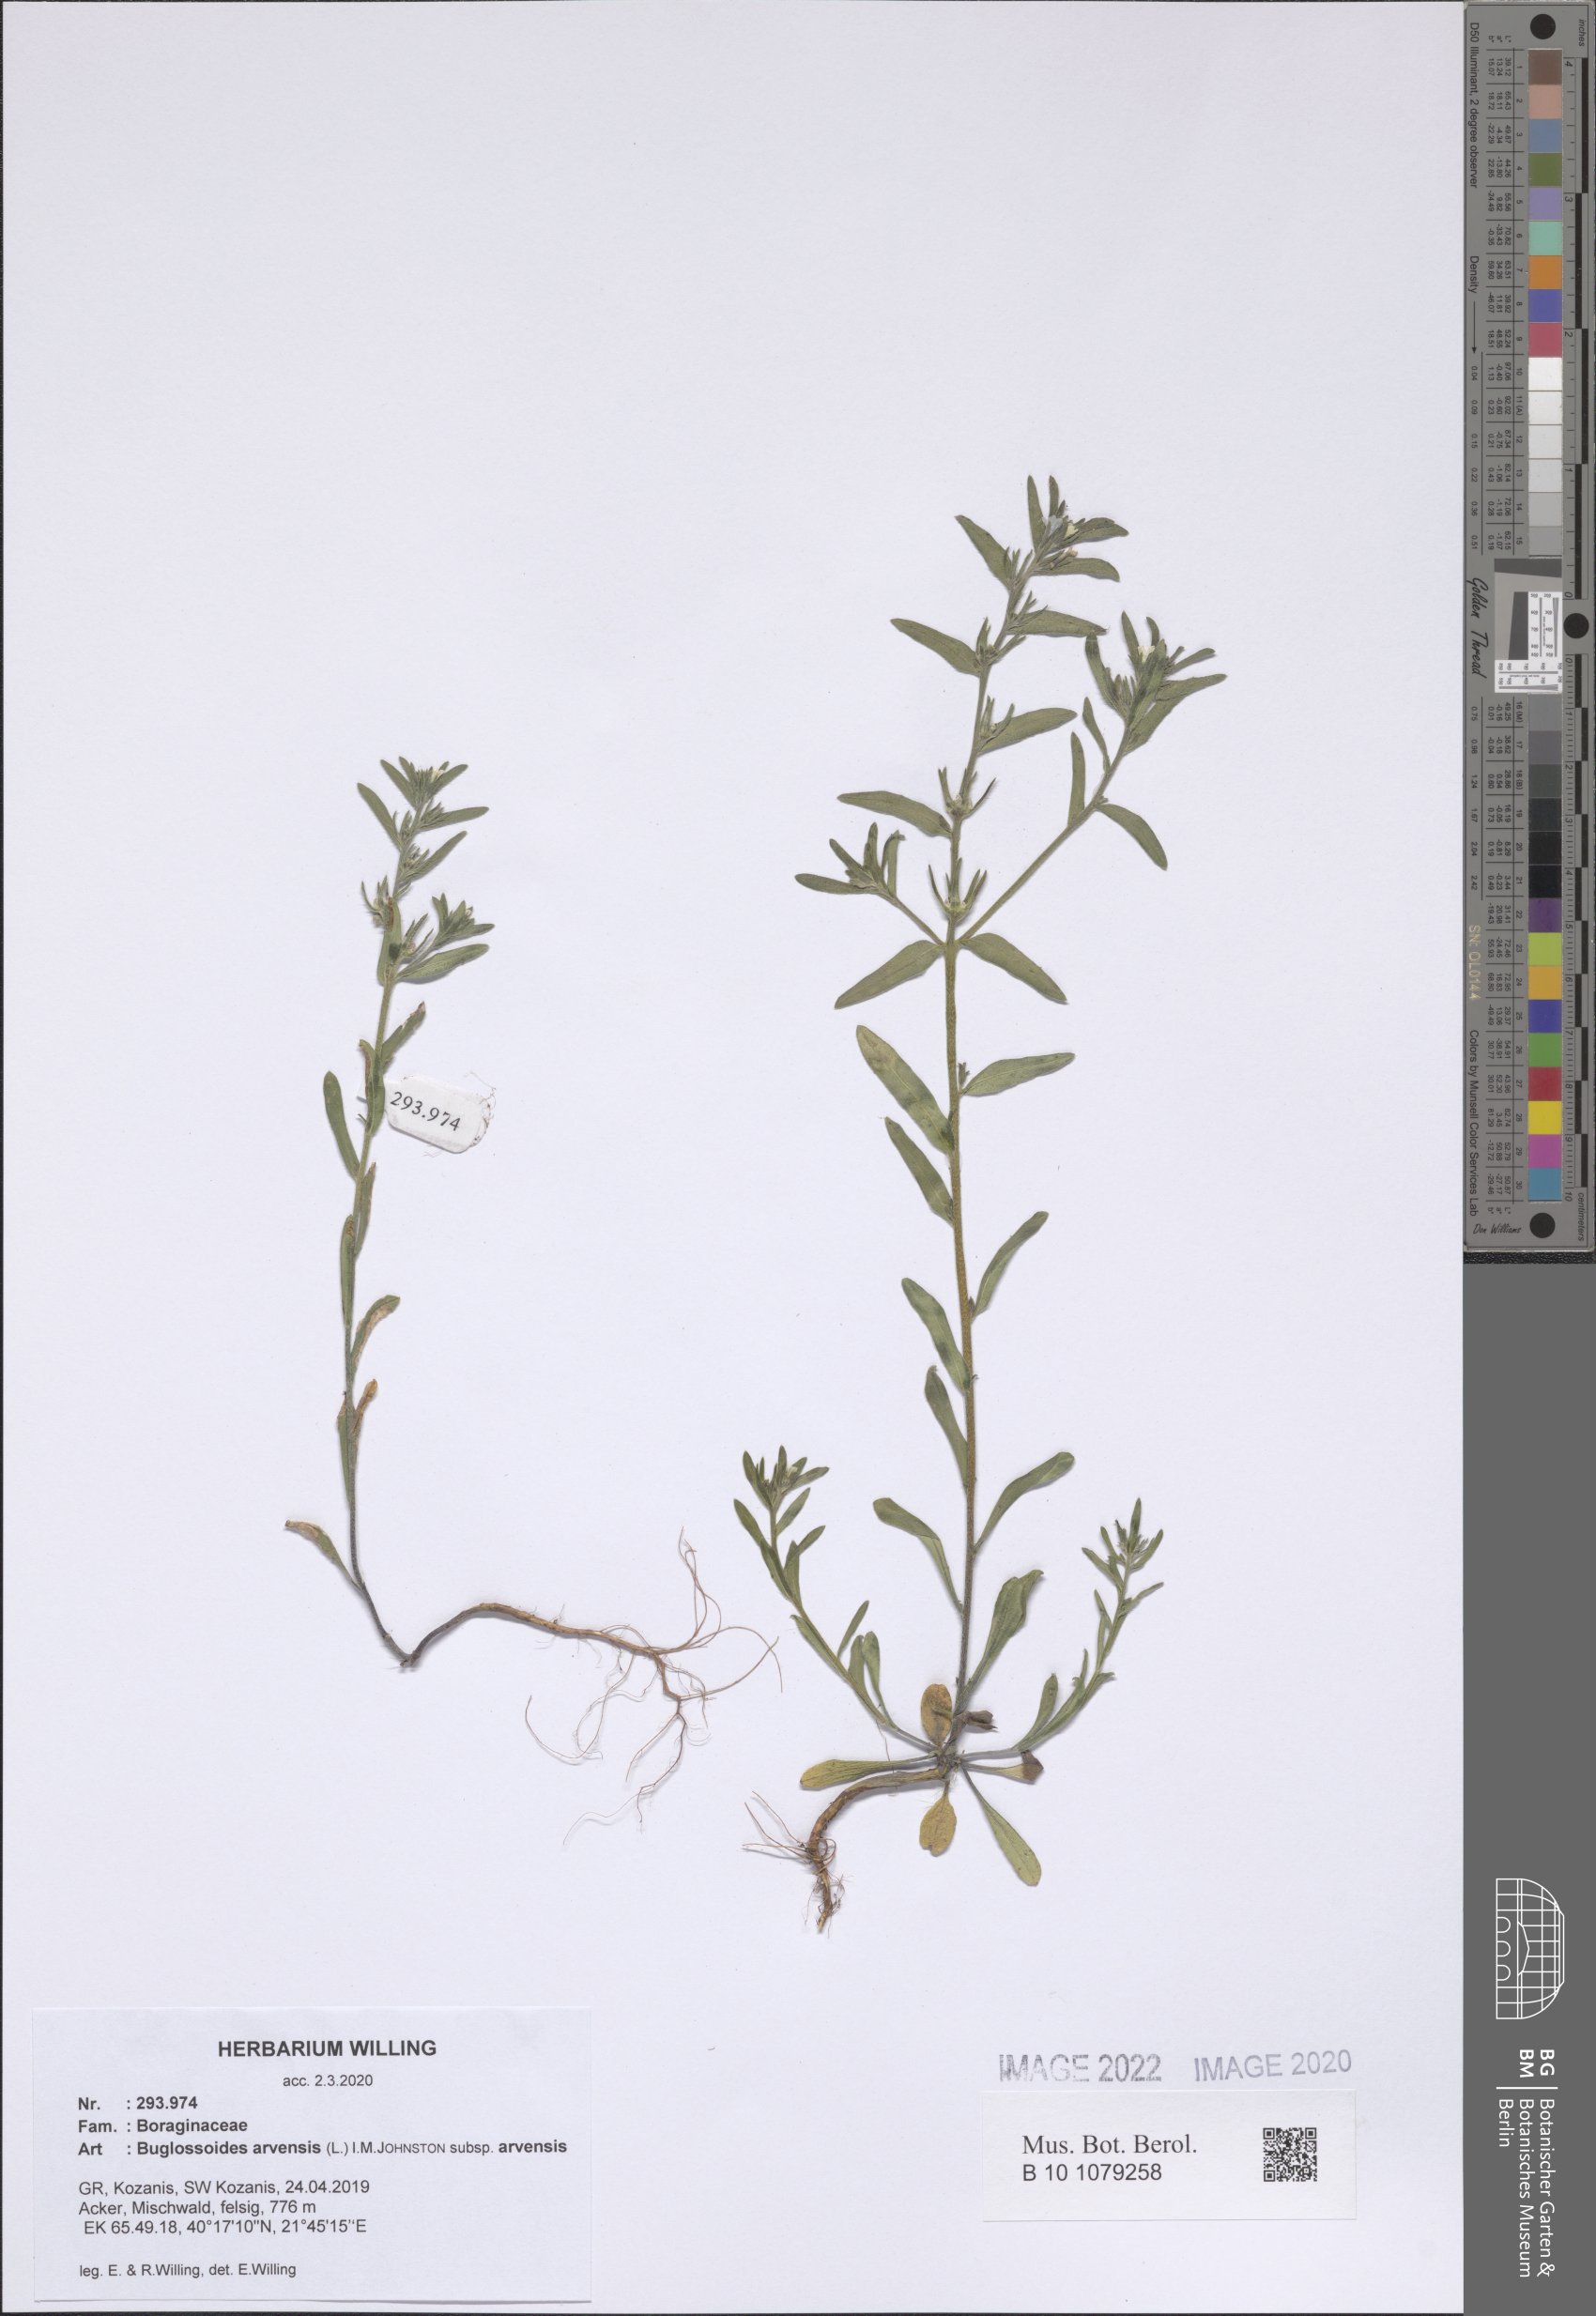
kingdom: Plantae
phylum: Tracheophyta
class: Magnoliopsida
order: Boraginales
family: Boraginaceae
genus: Buglossoides
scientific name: Buglossoides arvensis
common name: Corn gromwell
